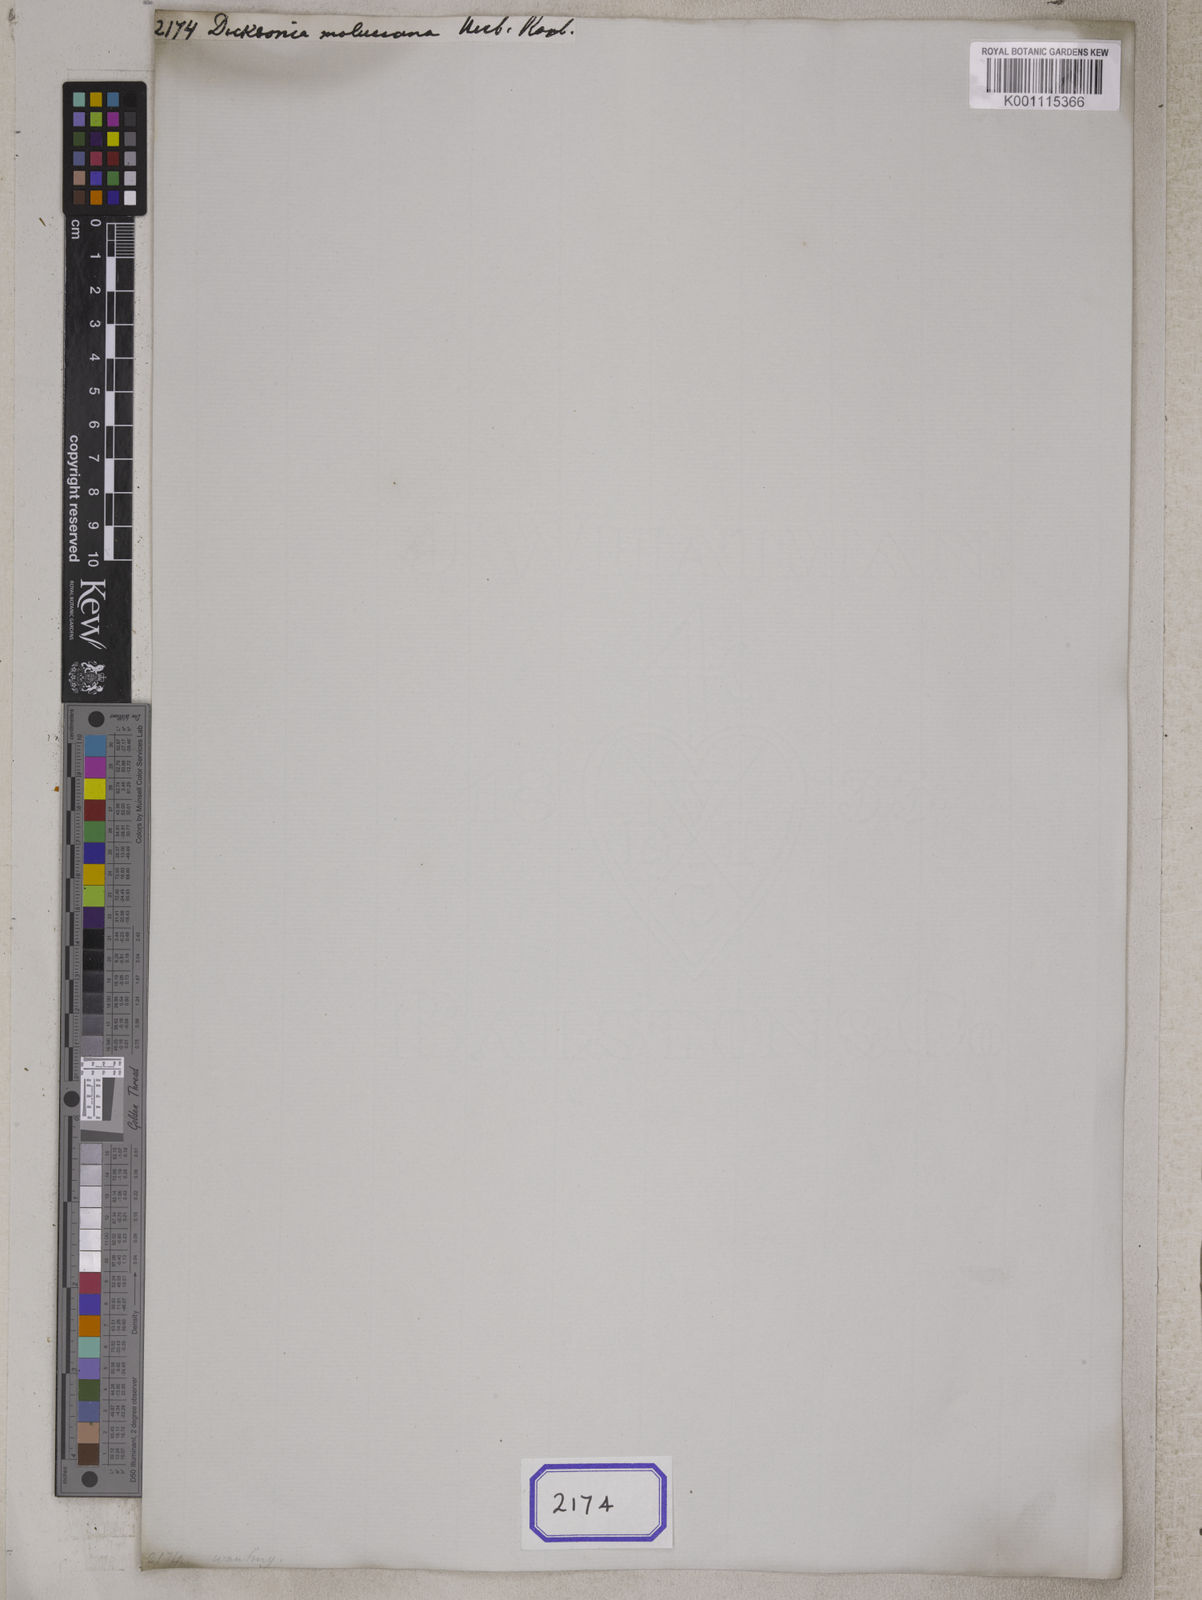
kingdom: Plantae
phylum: Tracheophyta
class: Polypodiopsida
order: Polypodiales
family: Cystodiaceae
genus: Cystodium
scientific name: Cystodium sorbifolium
